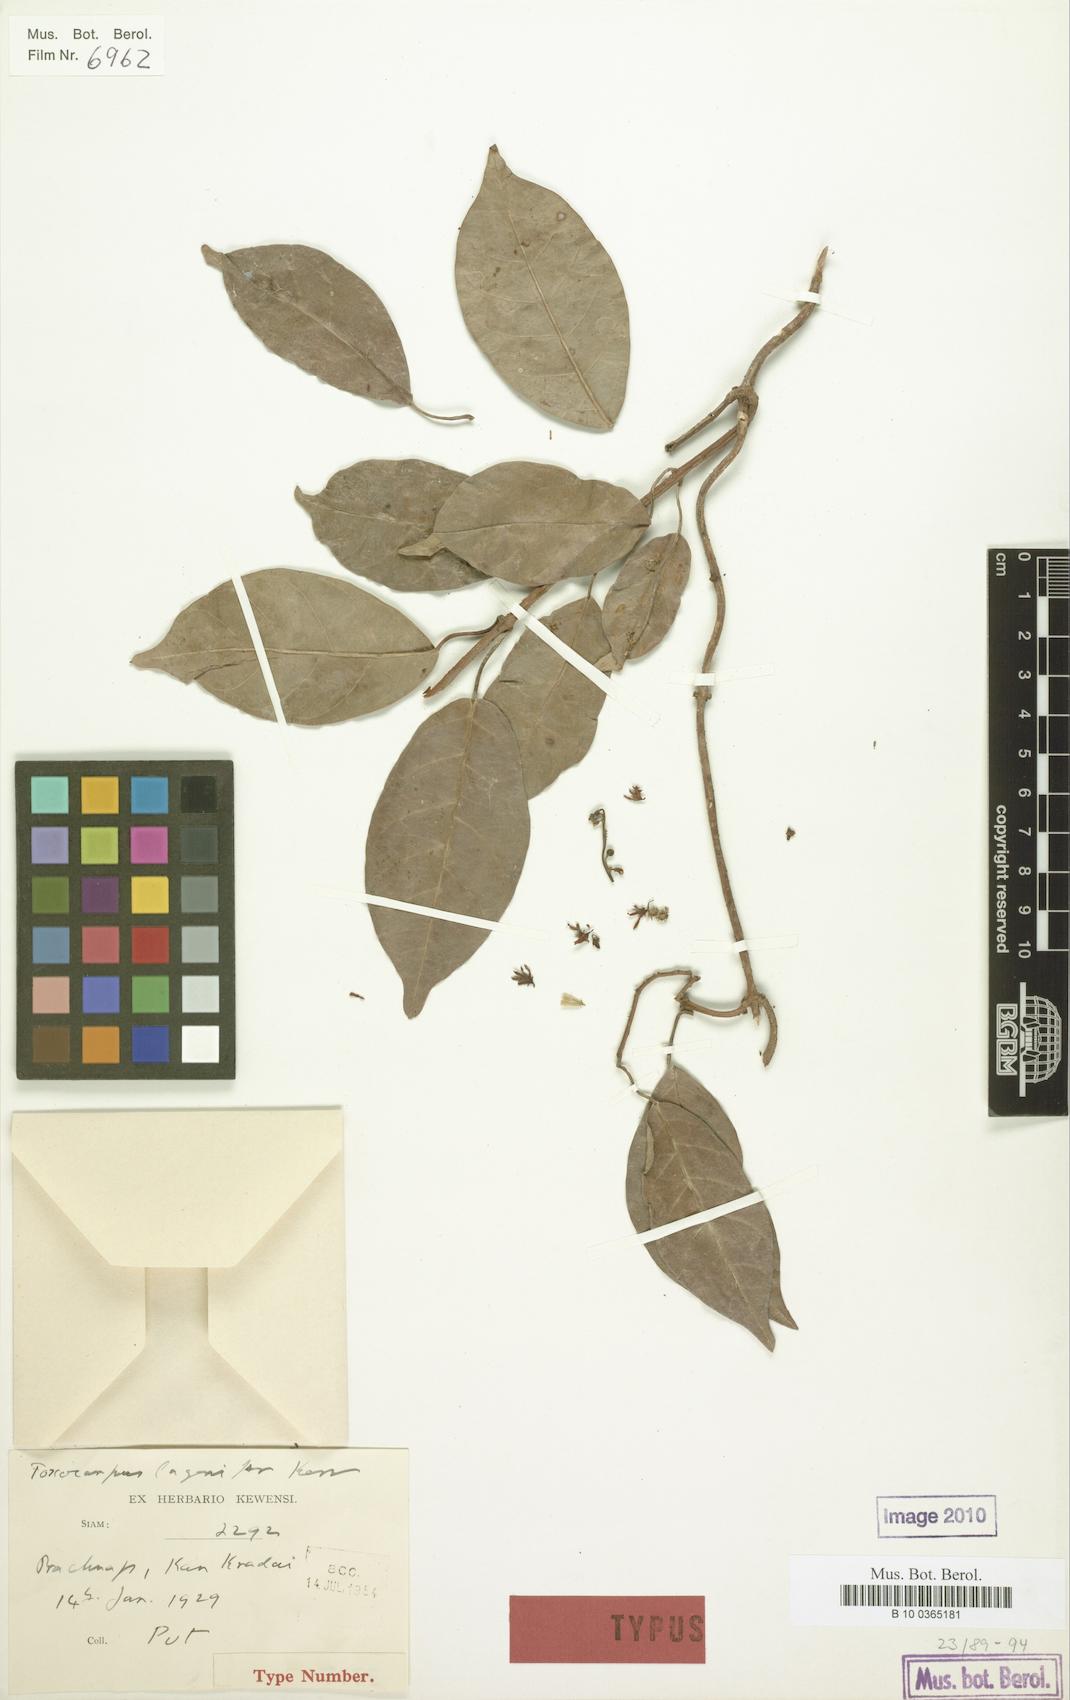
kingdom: Plantae
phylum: Tracheophyta
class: Magnoliopsida
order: Gentianales
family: Apocynaceae
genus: Secamone
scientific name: Secamone lagenifera
